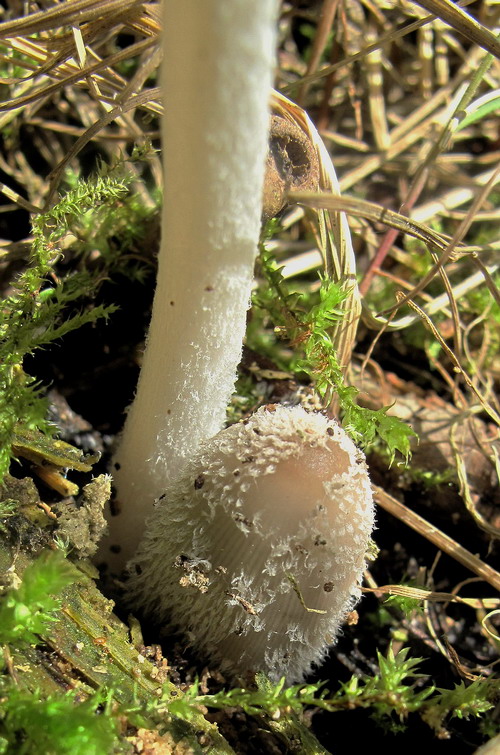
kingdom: Fungi
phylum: Basidiomycota
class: Agaricomycetes
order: Agaricales
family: Psathyrellaceae
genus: Coprinopsis
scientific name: Coprinopsis jonesii
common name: spættet blækhat
